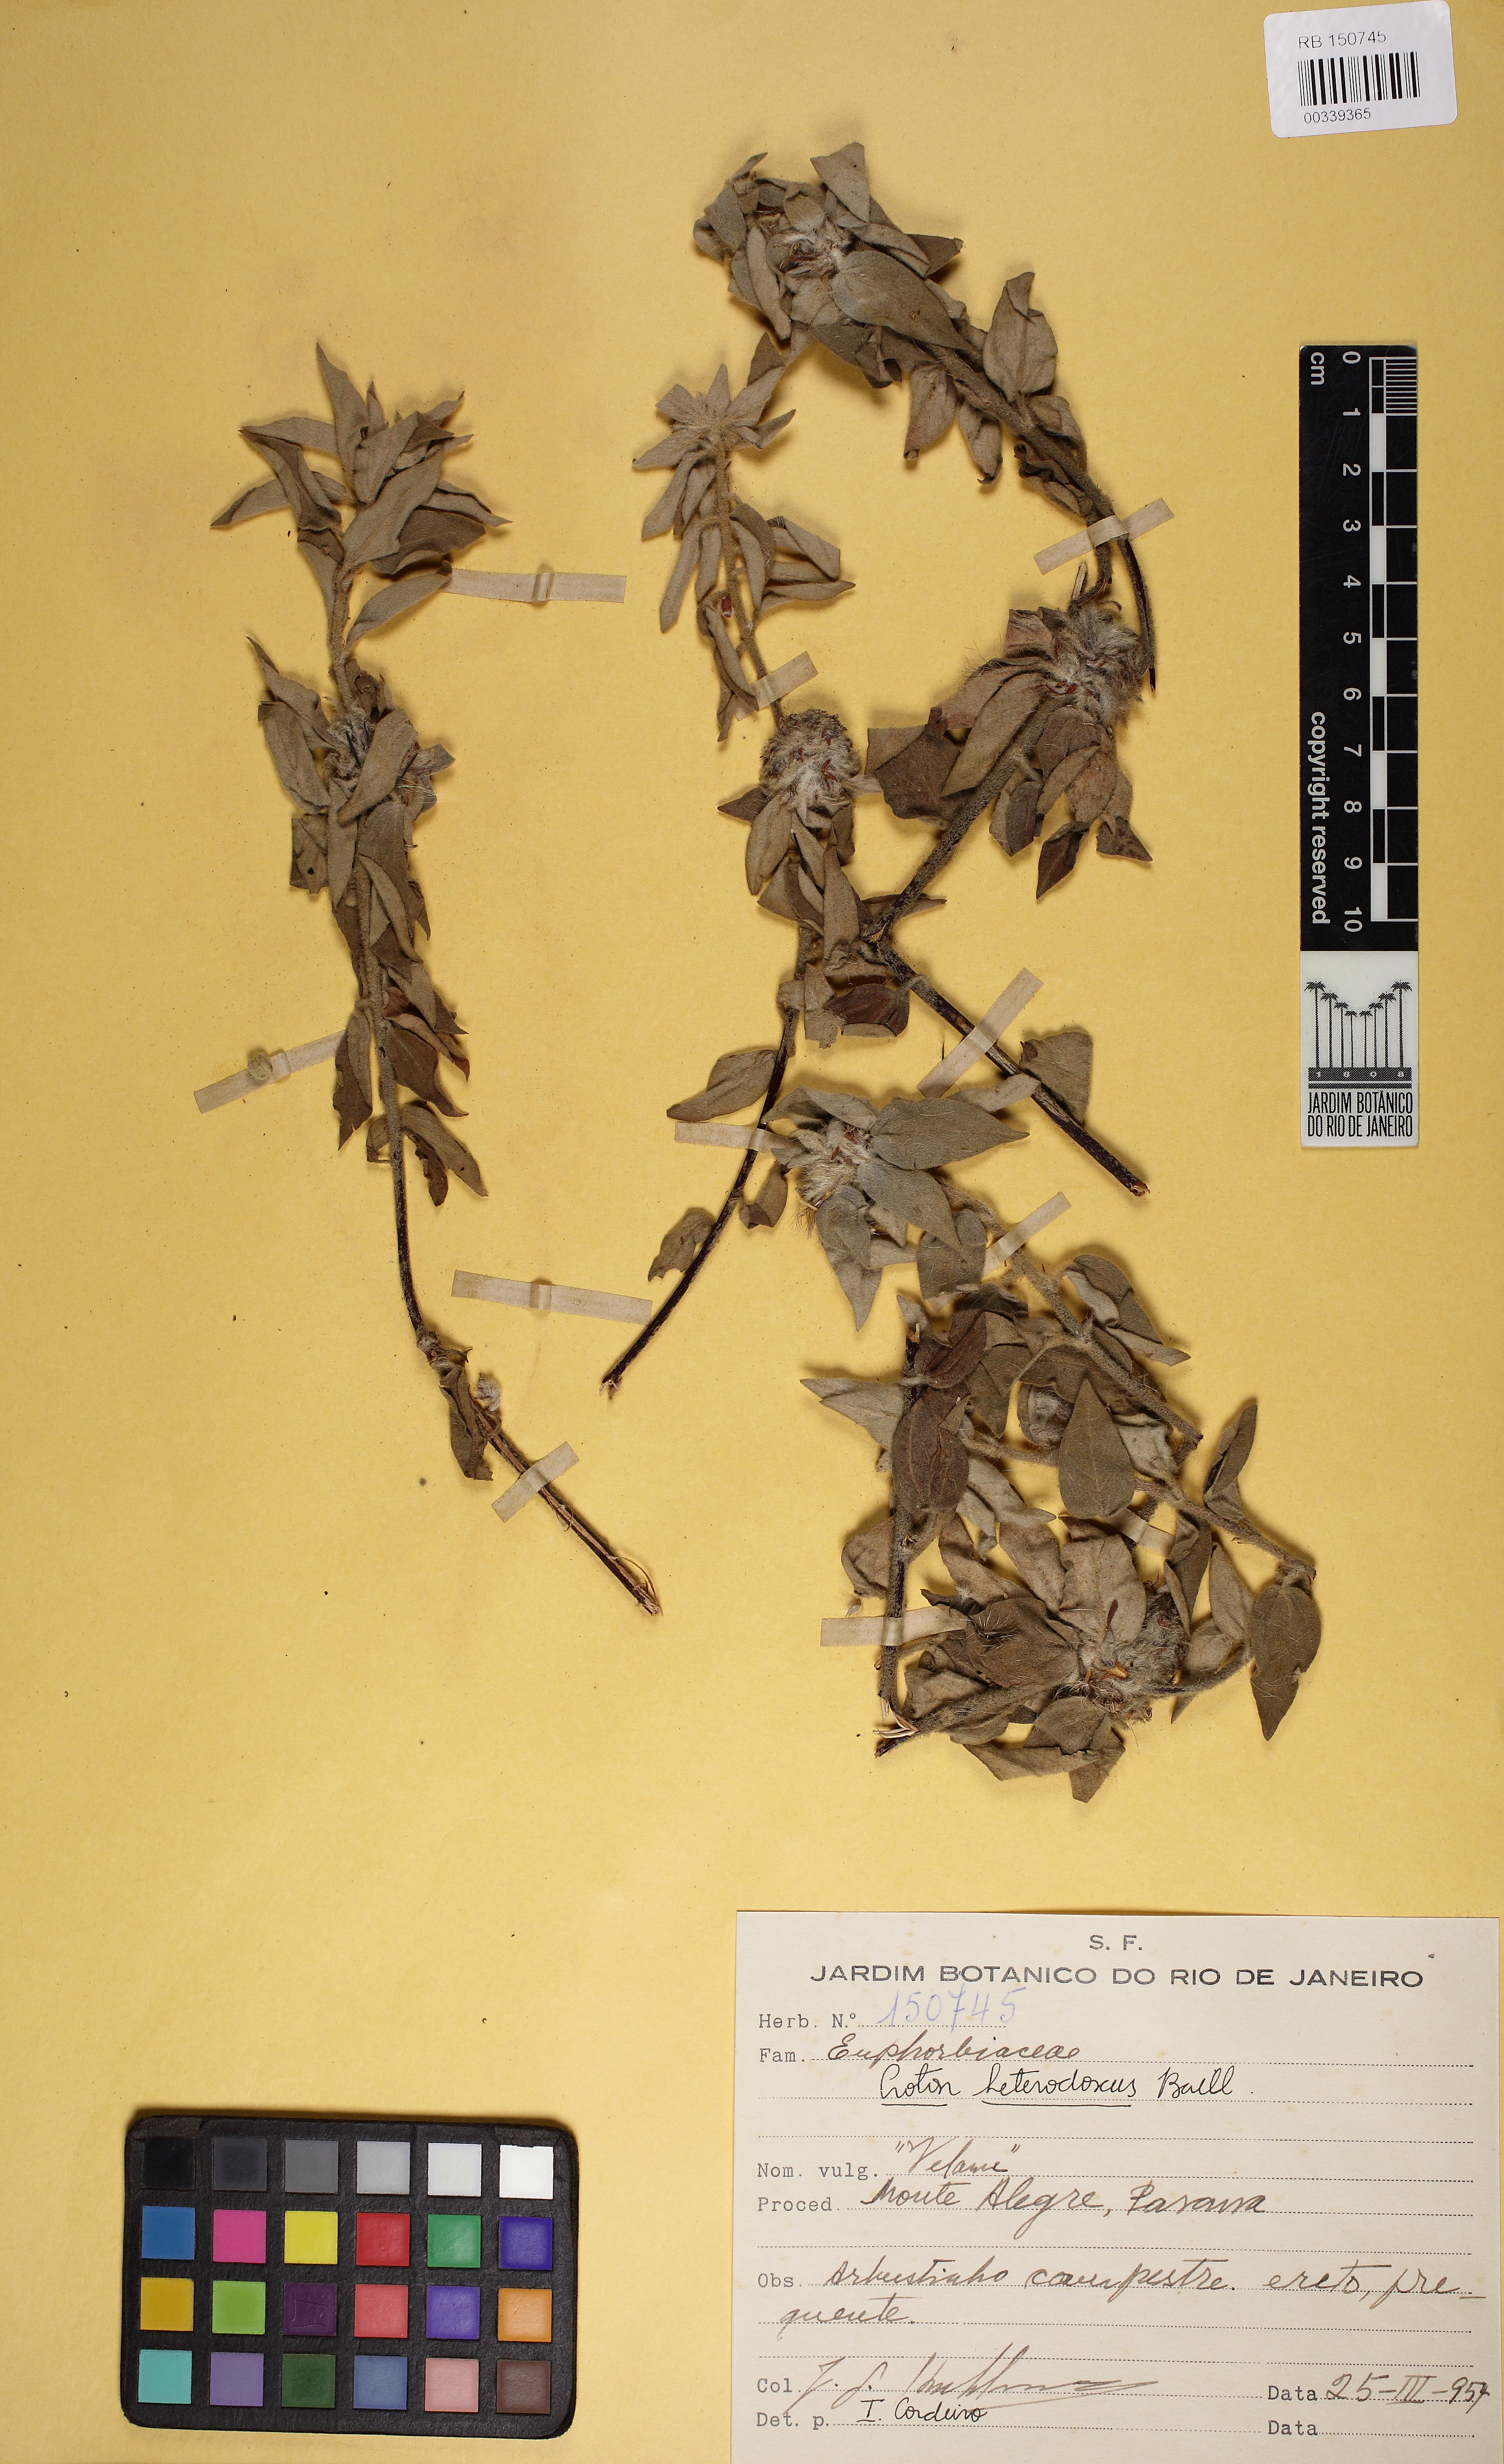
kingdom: Plantae
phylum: Tracheophyta
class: Magnoliopsida
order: Malpighiales
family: Euphorbiaceae
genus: Croton
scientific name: Croton heterodoxus
